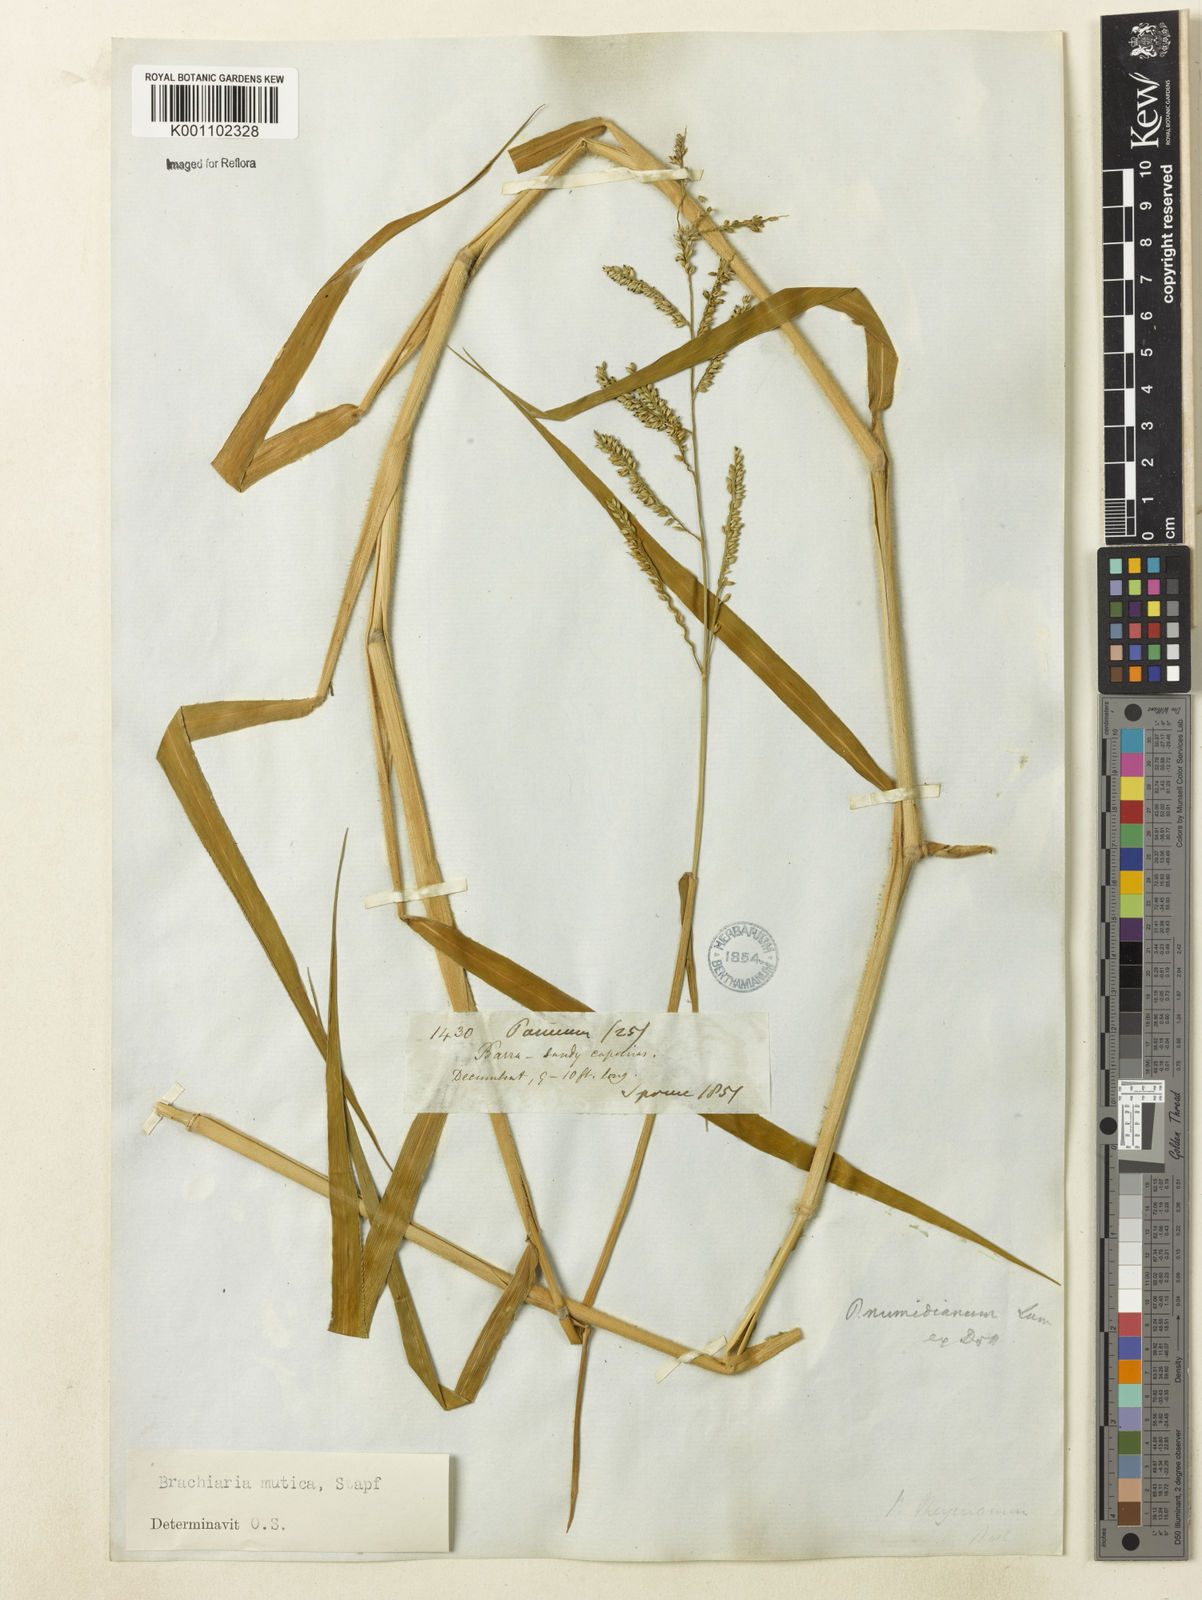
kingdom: Plantae
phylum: Tracheophyta
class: Liliopsida
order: Poales
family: Poaceae
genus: Urochloa
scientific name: Urochloa mutica
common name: Para grass
